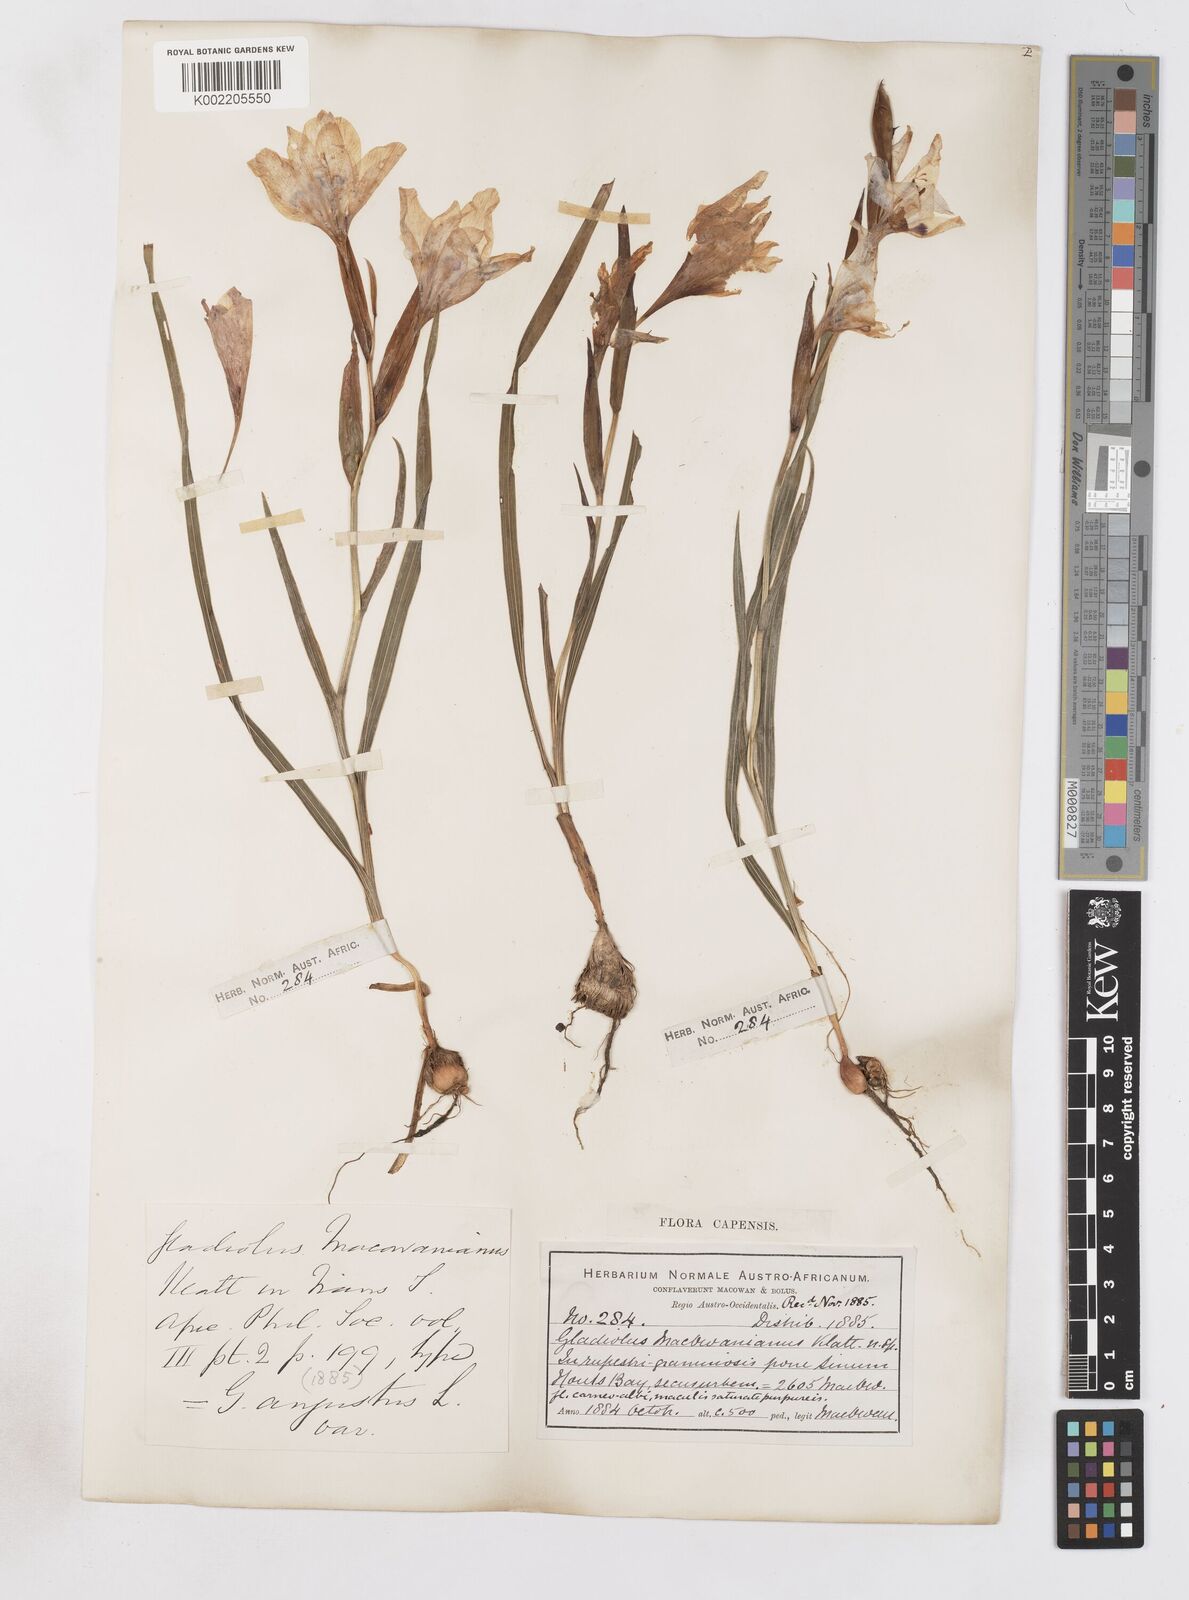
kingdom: Plantae
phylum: Tracheophyta
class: Liliopsida
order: Asparagales
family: Iridaceae
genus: Gladiolus
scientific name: Gladiolus carneus
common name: Painted-lady
